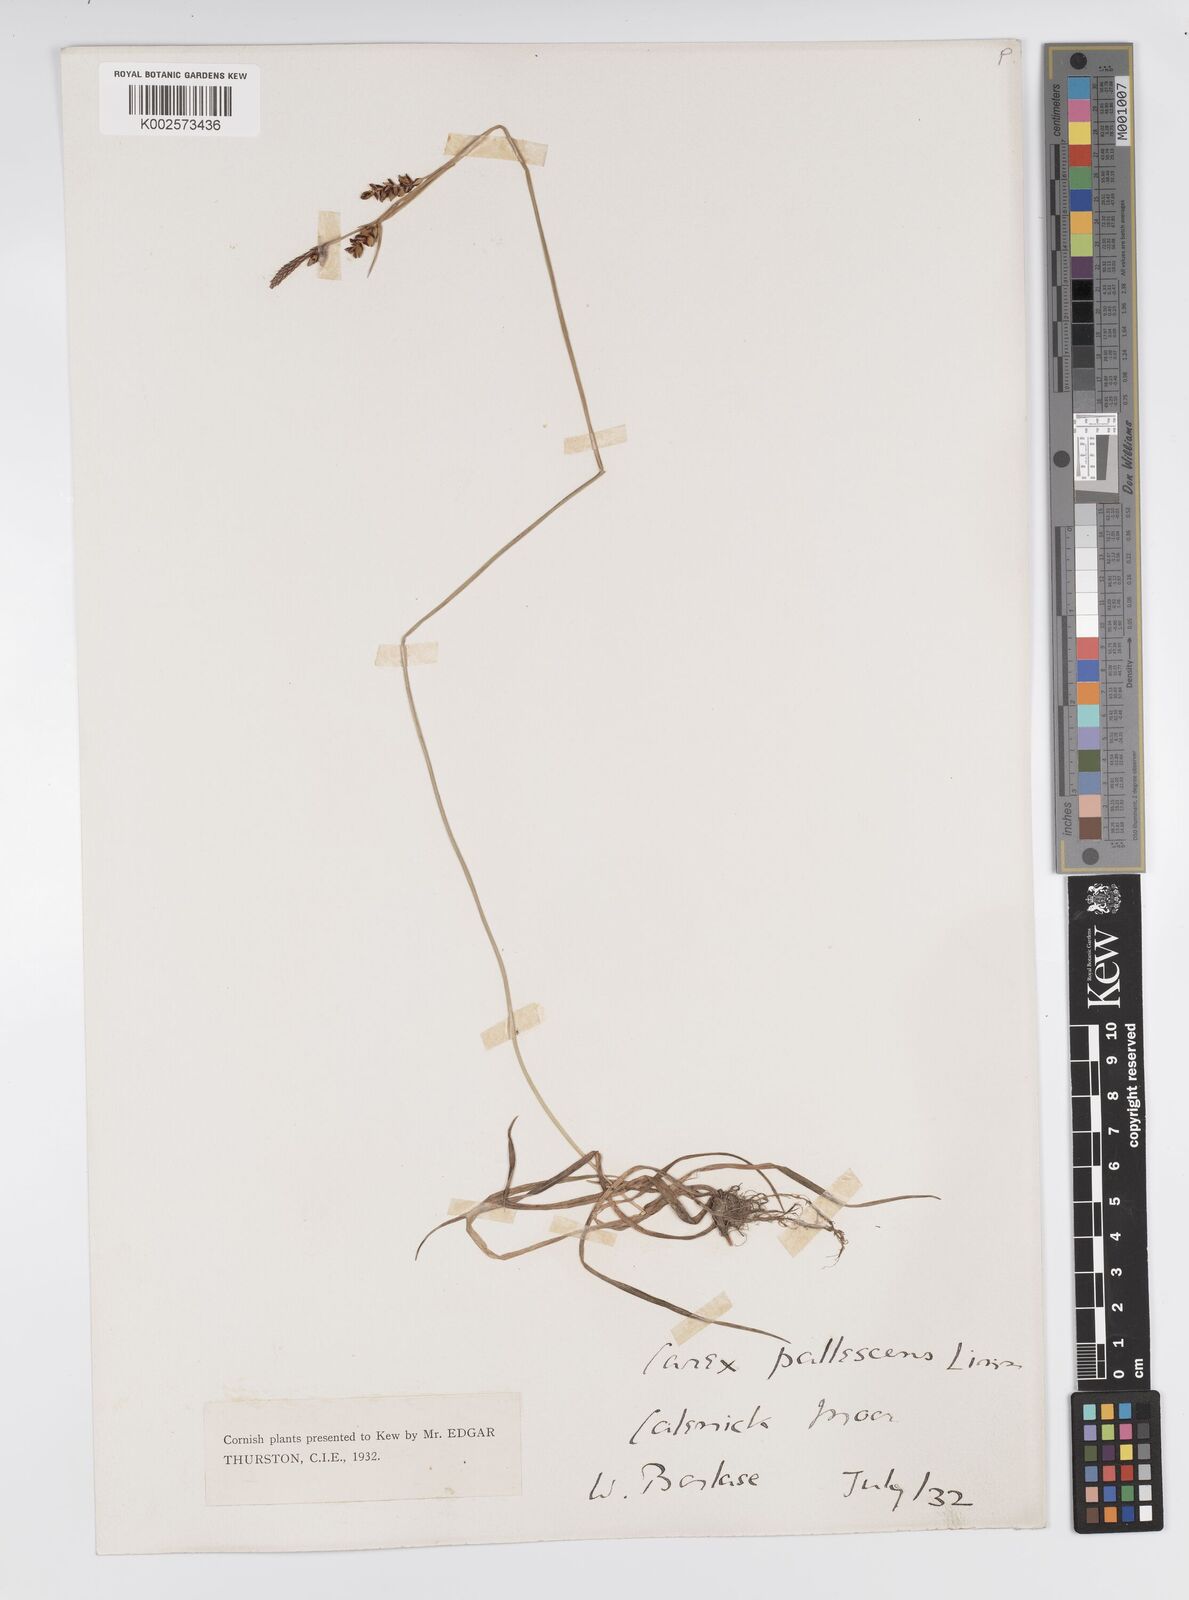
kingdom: Plantae
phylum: Tracheophyta
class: Liliopsida
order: Poales
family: Cyperaceae
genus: Carex
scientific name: Carex panicea
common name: Carnation sedge
